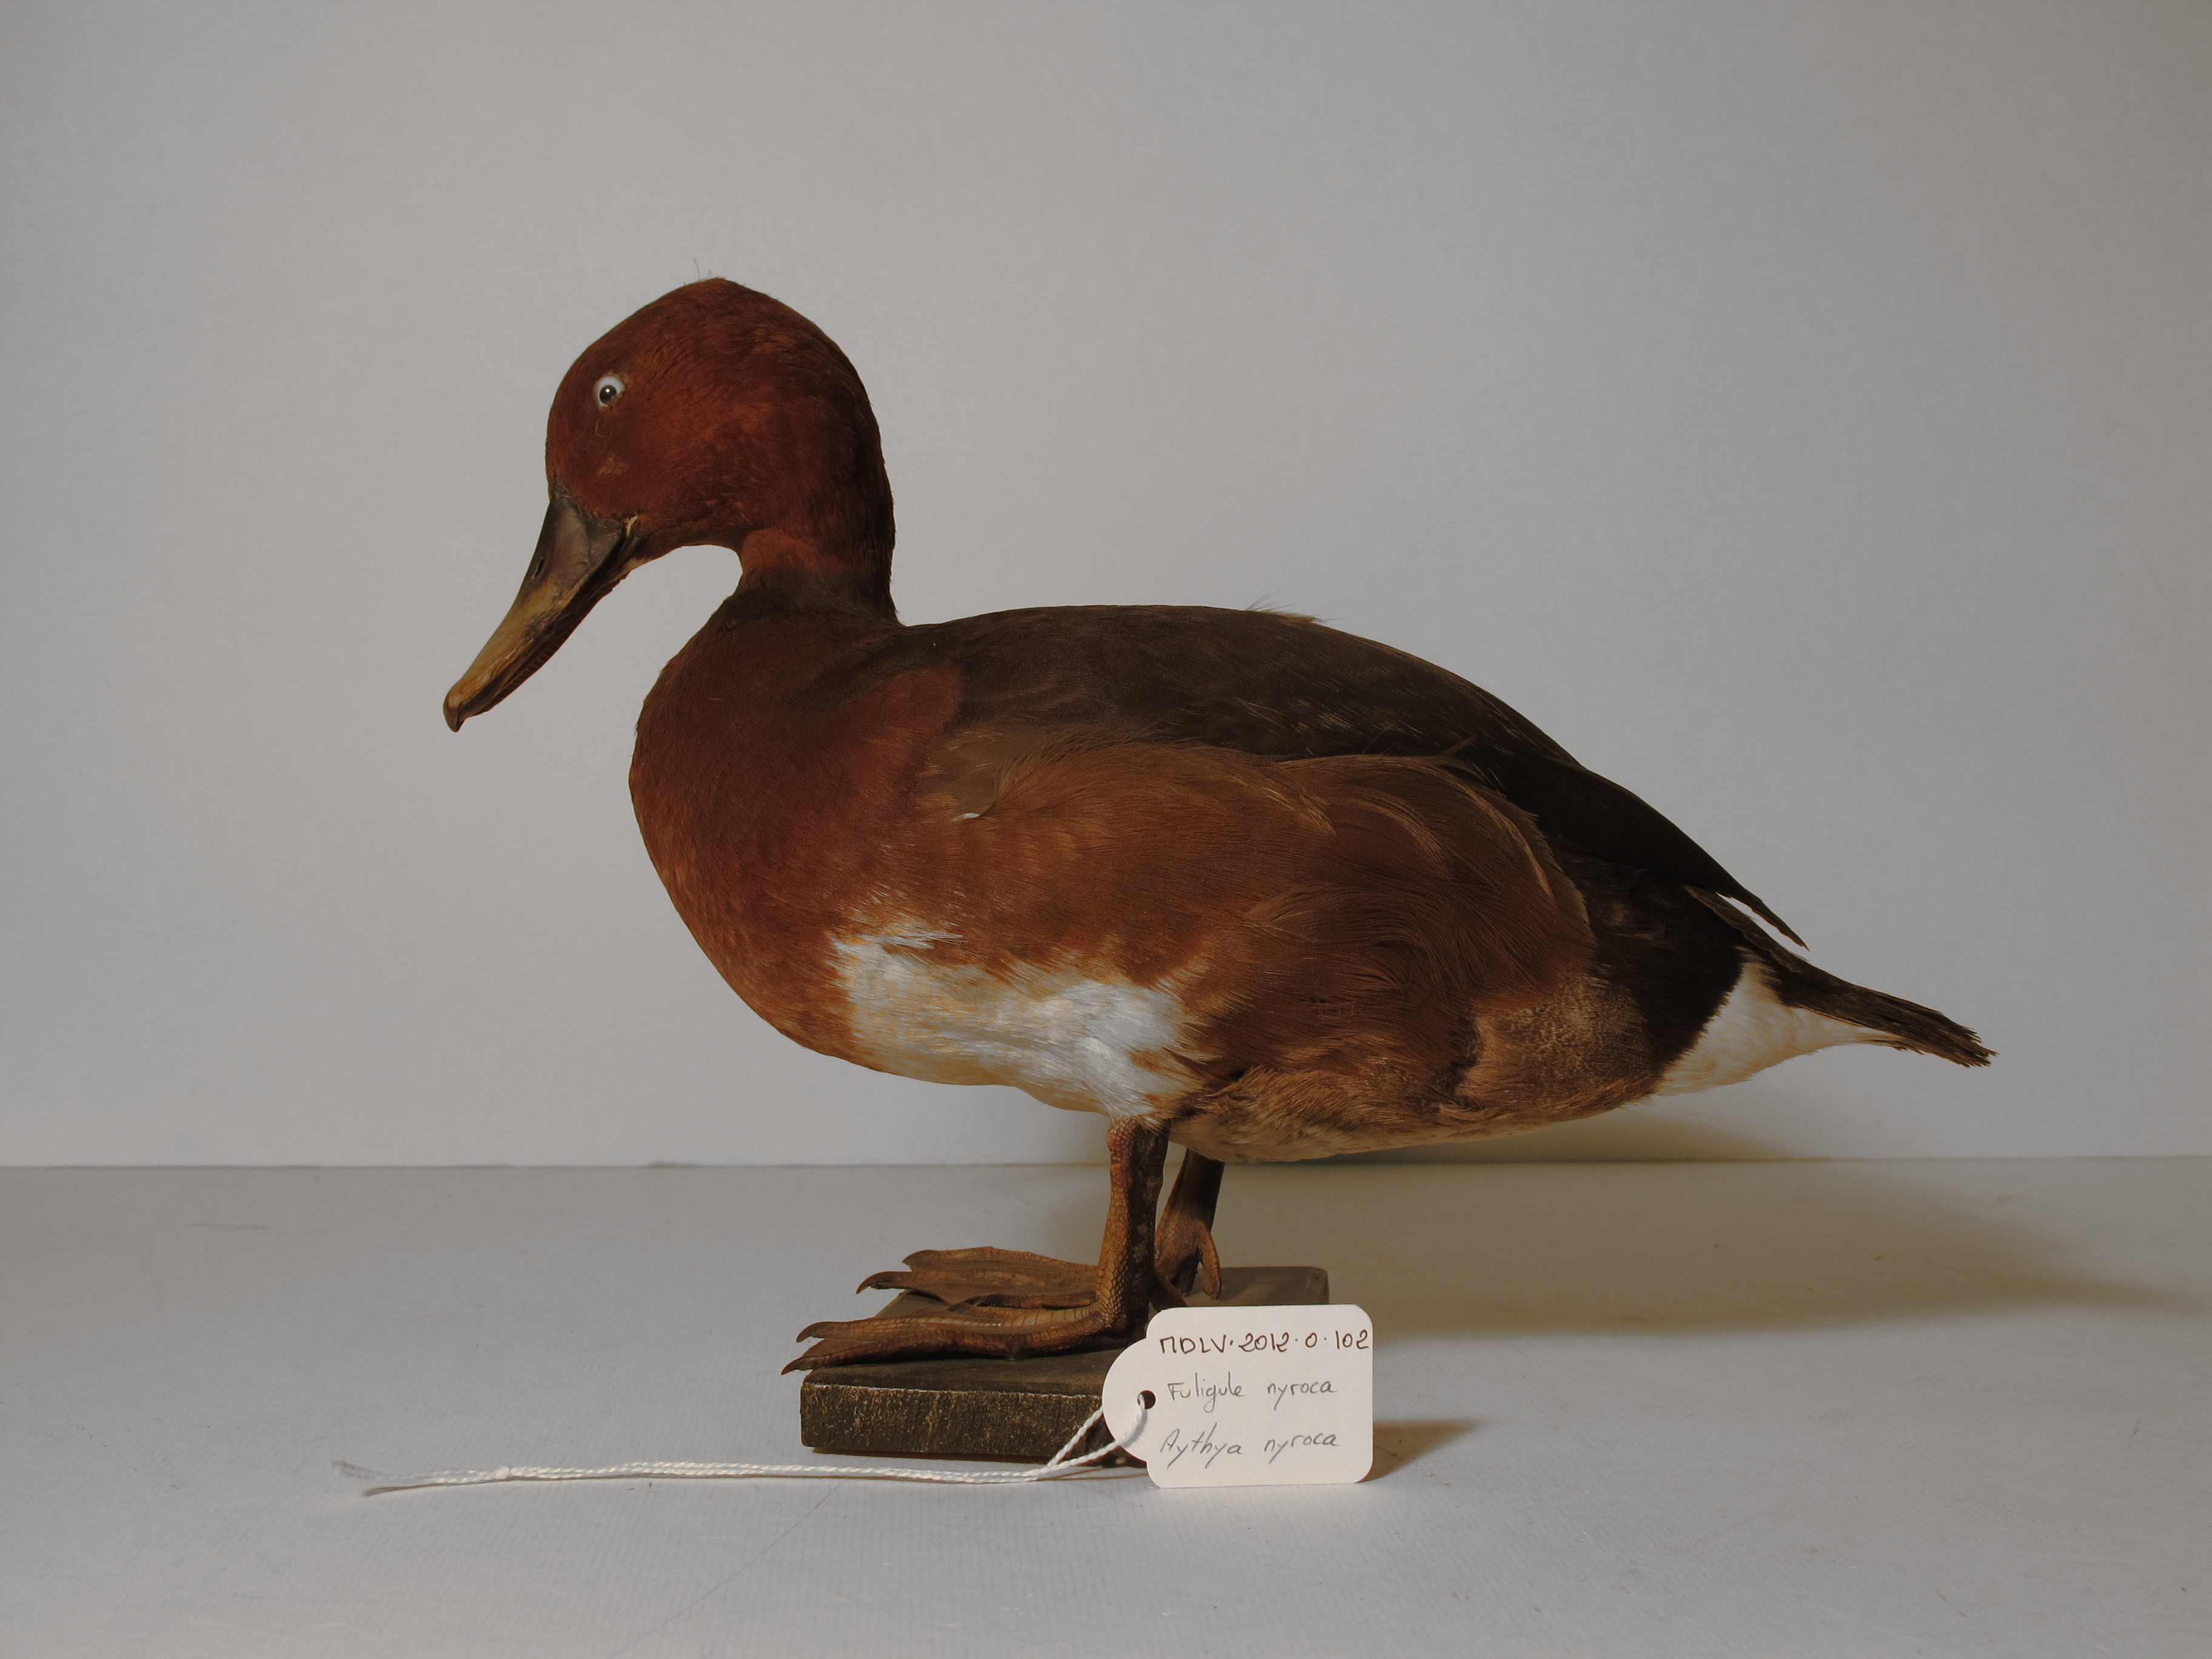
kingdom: Animalia
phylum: Chordata
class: Aves
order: Anseriformes
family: Anatidae
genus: Aythya
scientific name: Aythya nyroca
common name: Ferruginous Duck
